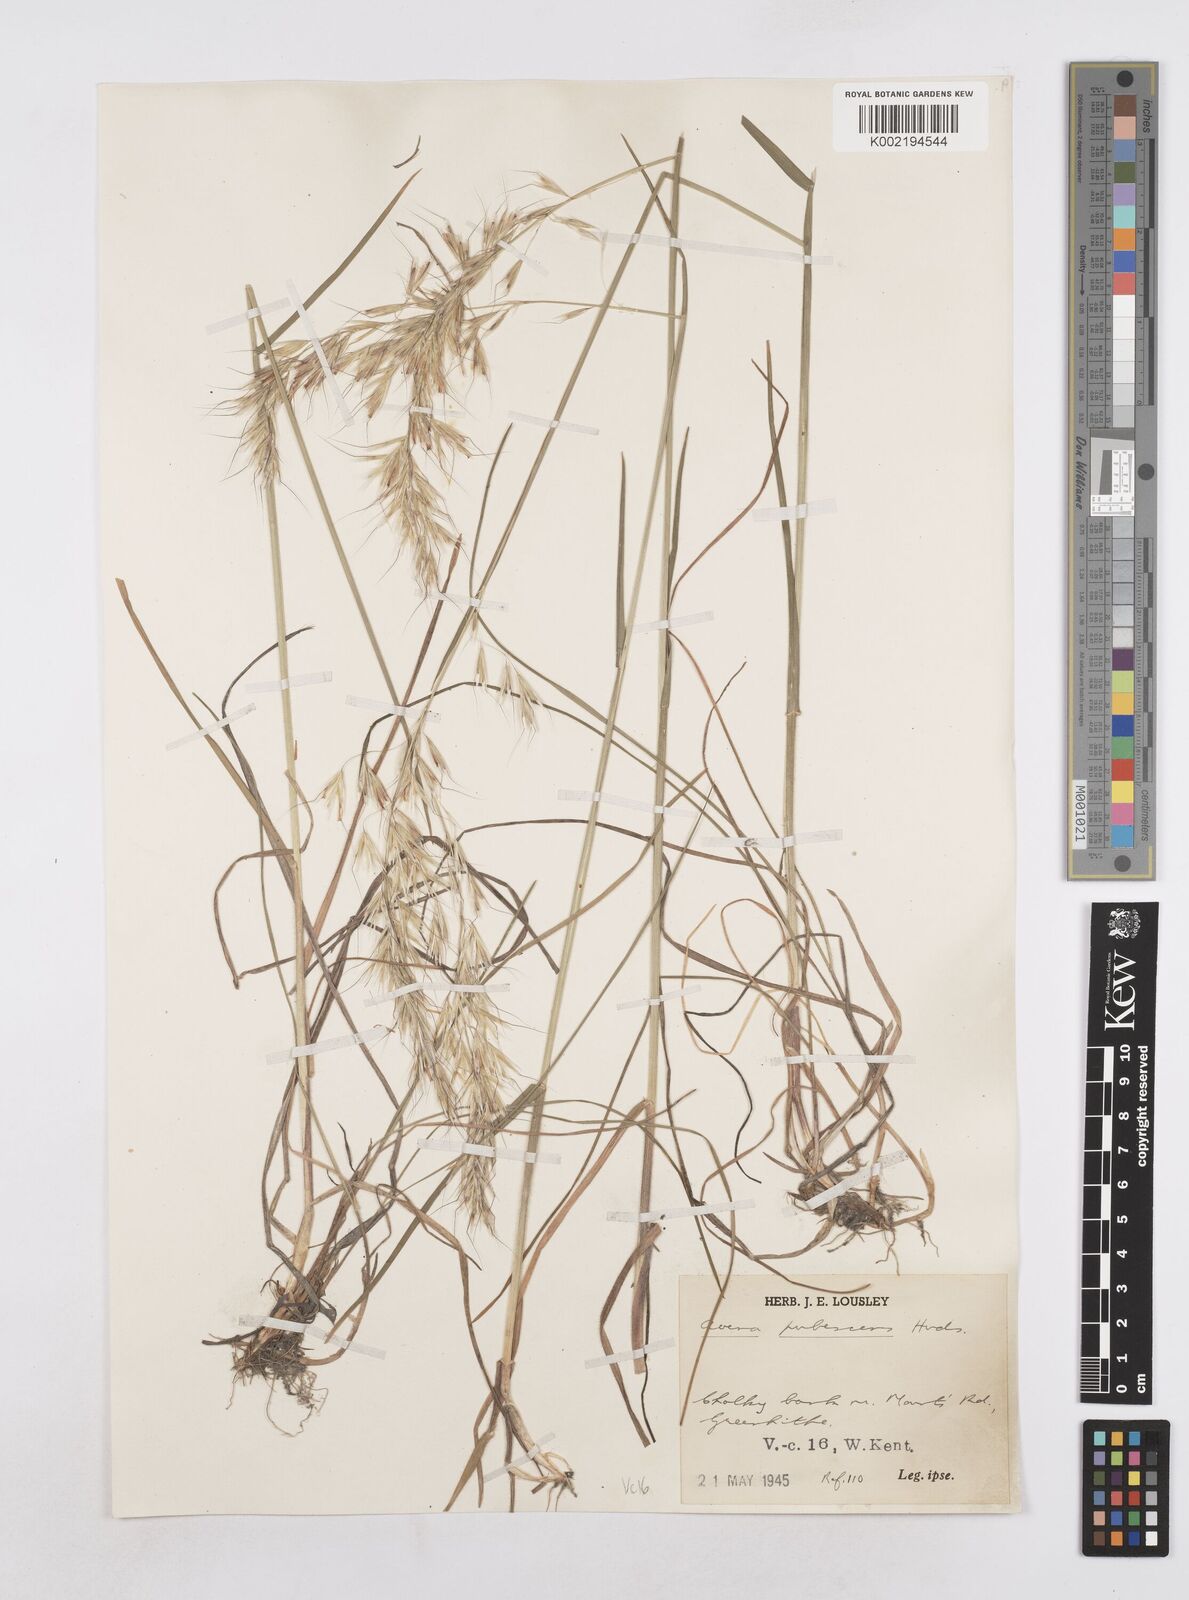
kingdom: Plantae
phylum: Tracheophyta
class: Liliopsida
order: Poales
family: Poaceae
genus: Avenula
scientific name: Avenula pubescens
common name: Downy alpine oatgrass
